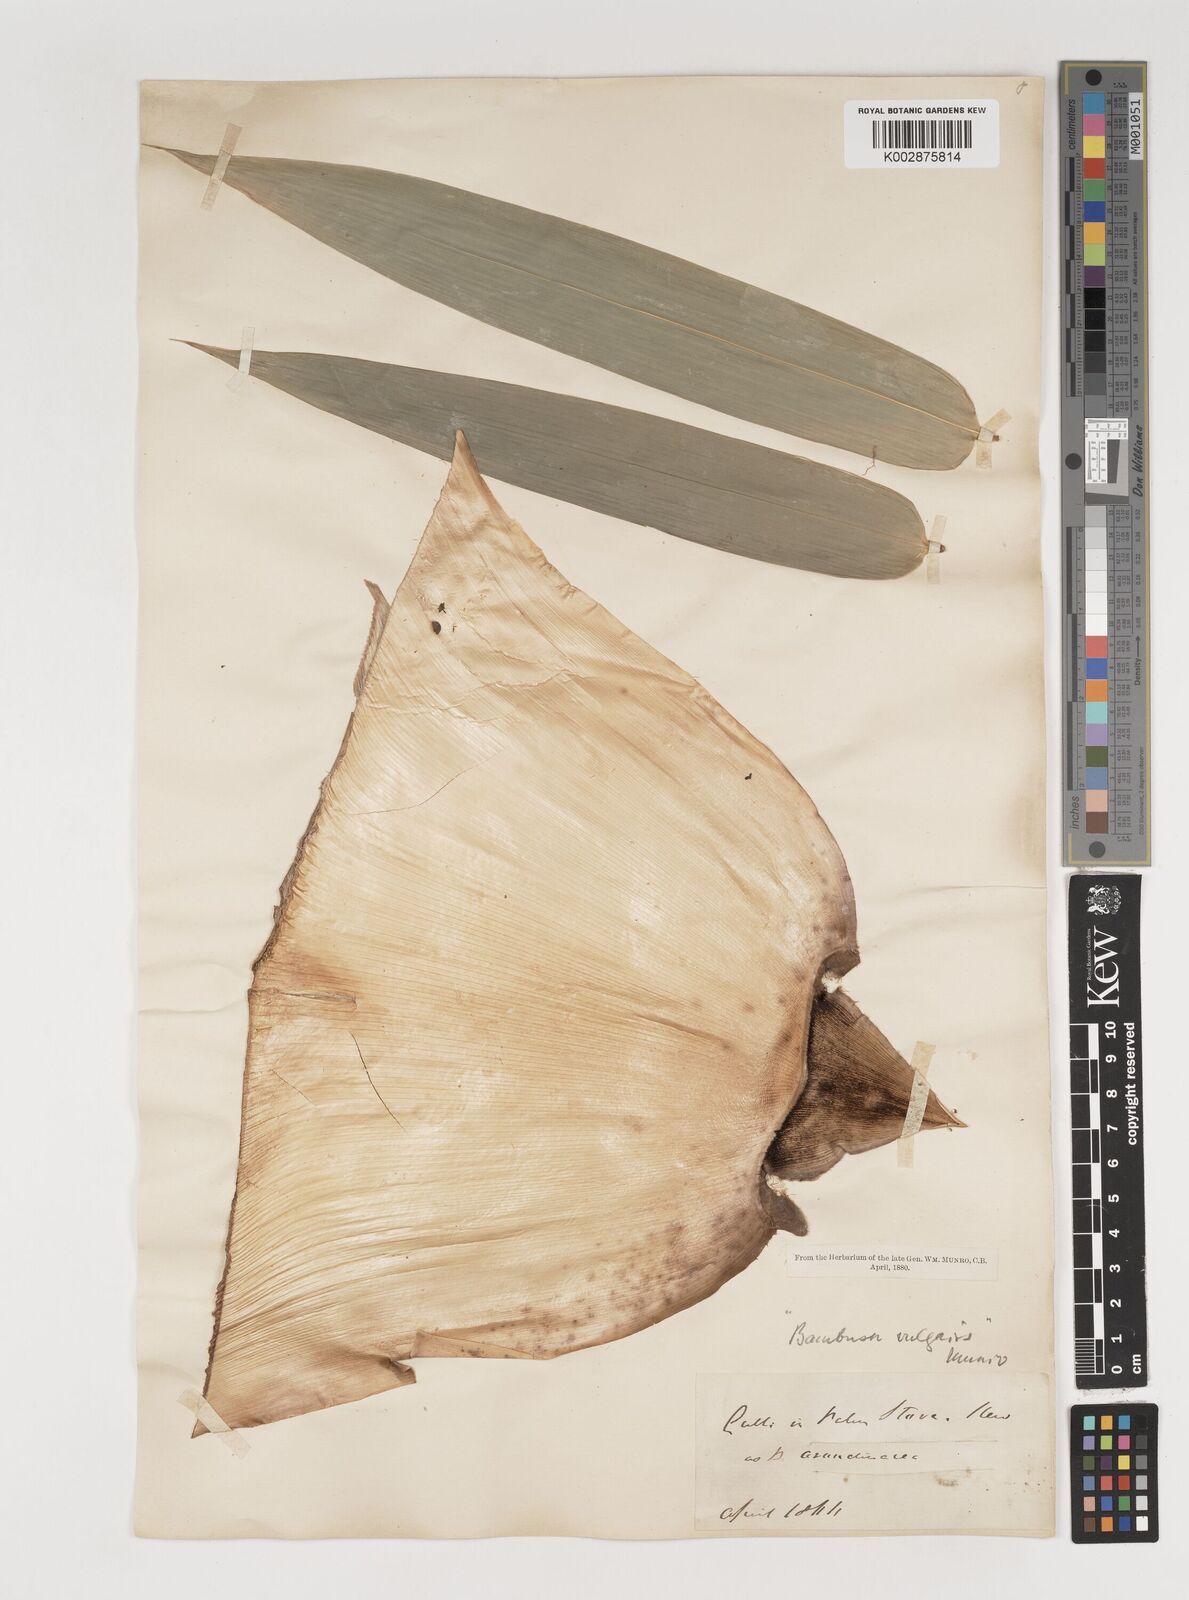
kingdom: Plantae
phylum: Tracheophyta
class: Liliopsida
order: Poales
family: Poaceae
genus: Bambusa
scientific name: Bambusa balcooa
